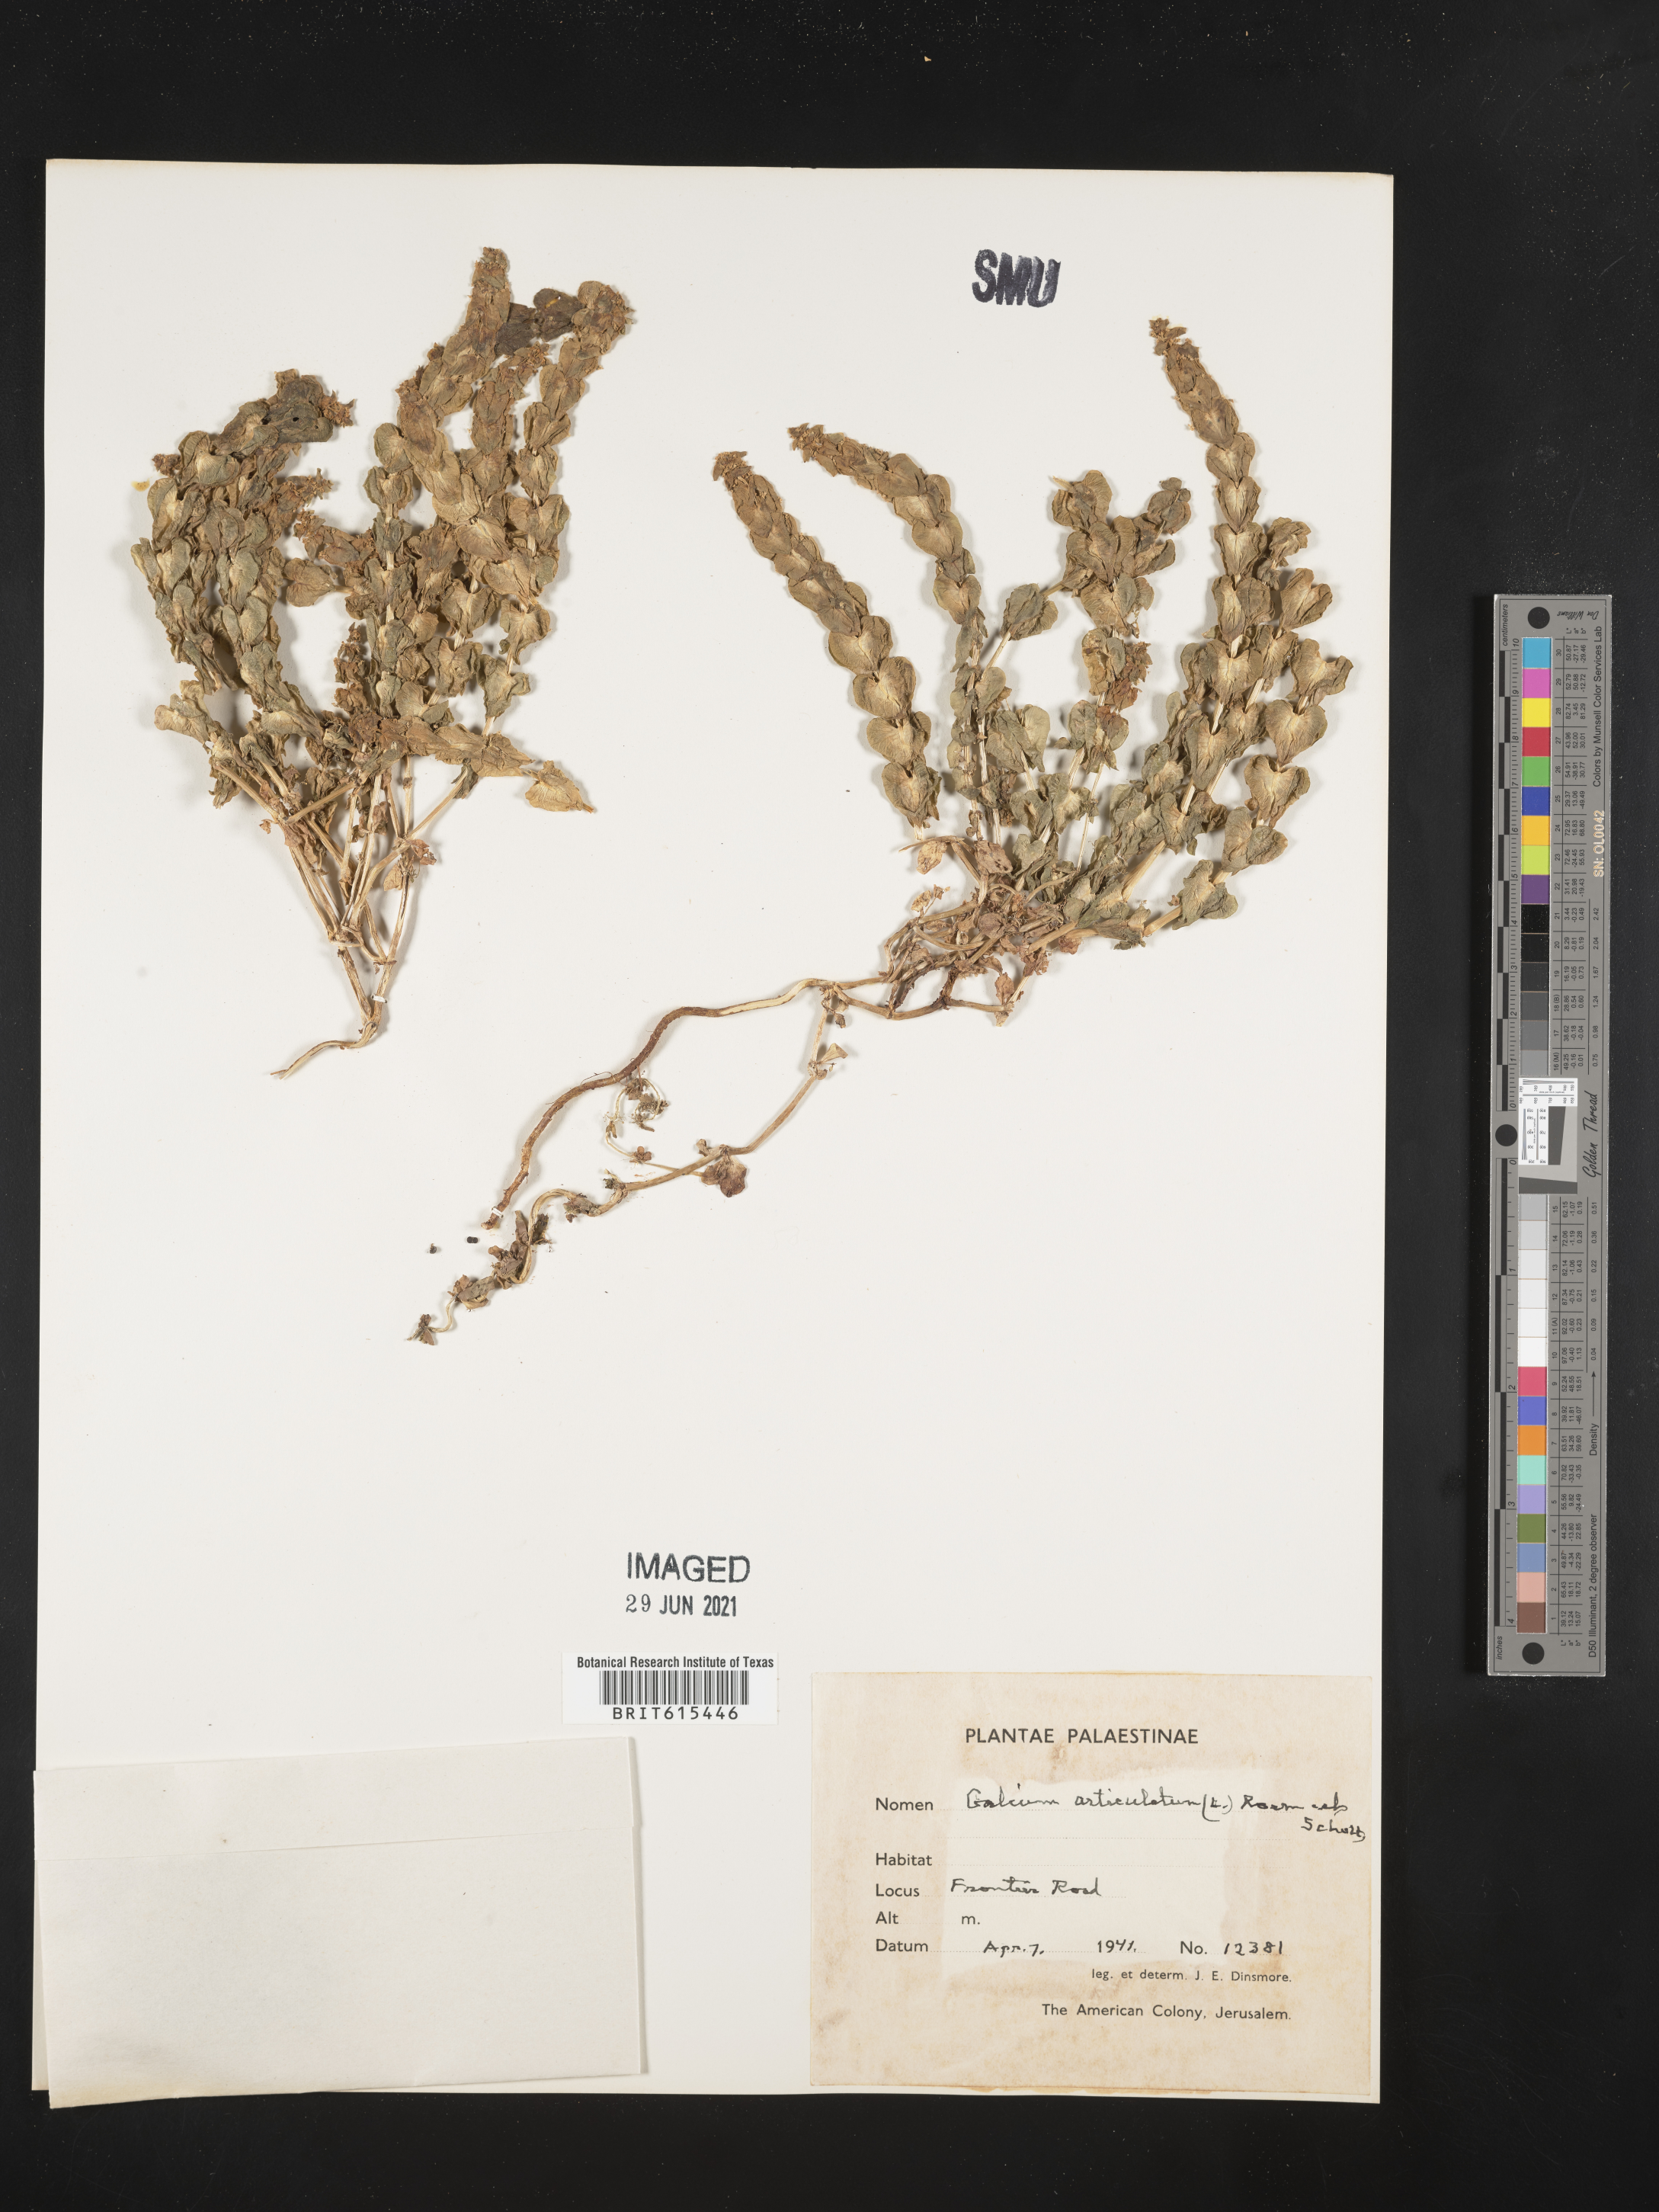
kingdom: Plantae
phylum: Tracheophyta
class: Magnoliopsida
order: Gentianales
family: Rubiaceae
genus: Galium
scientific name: Galium rubioides
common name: European bedstraw
